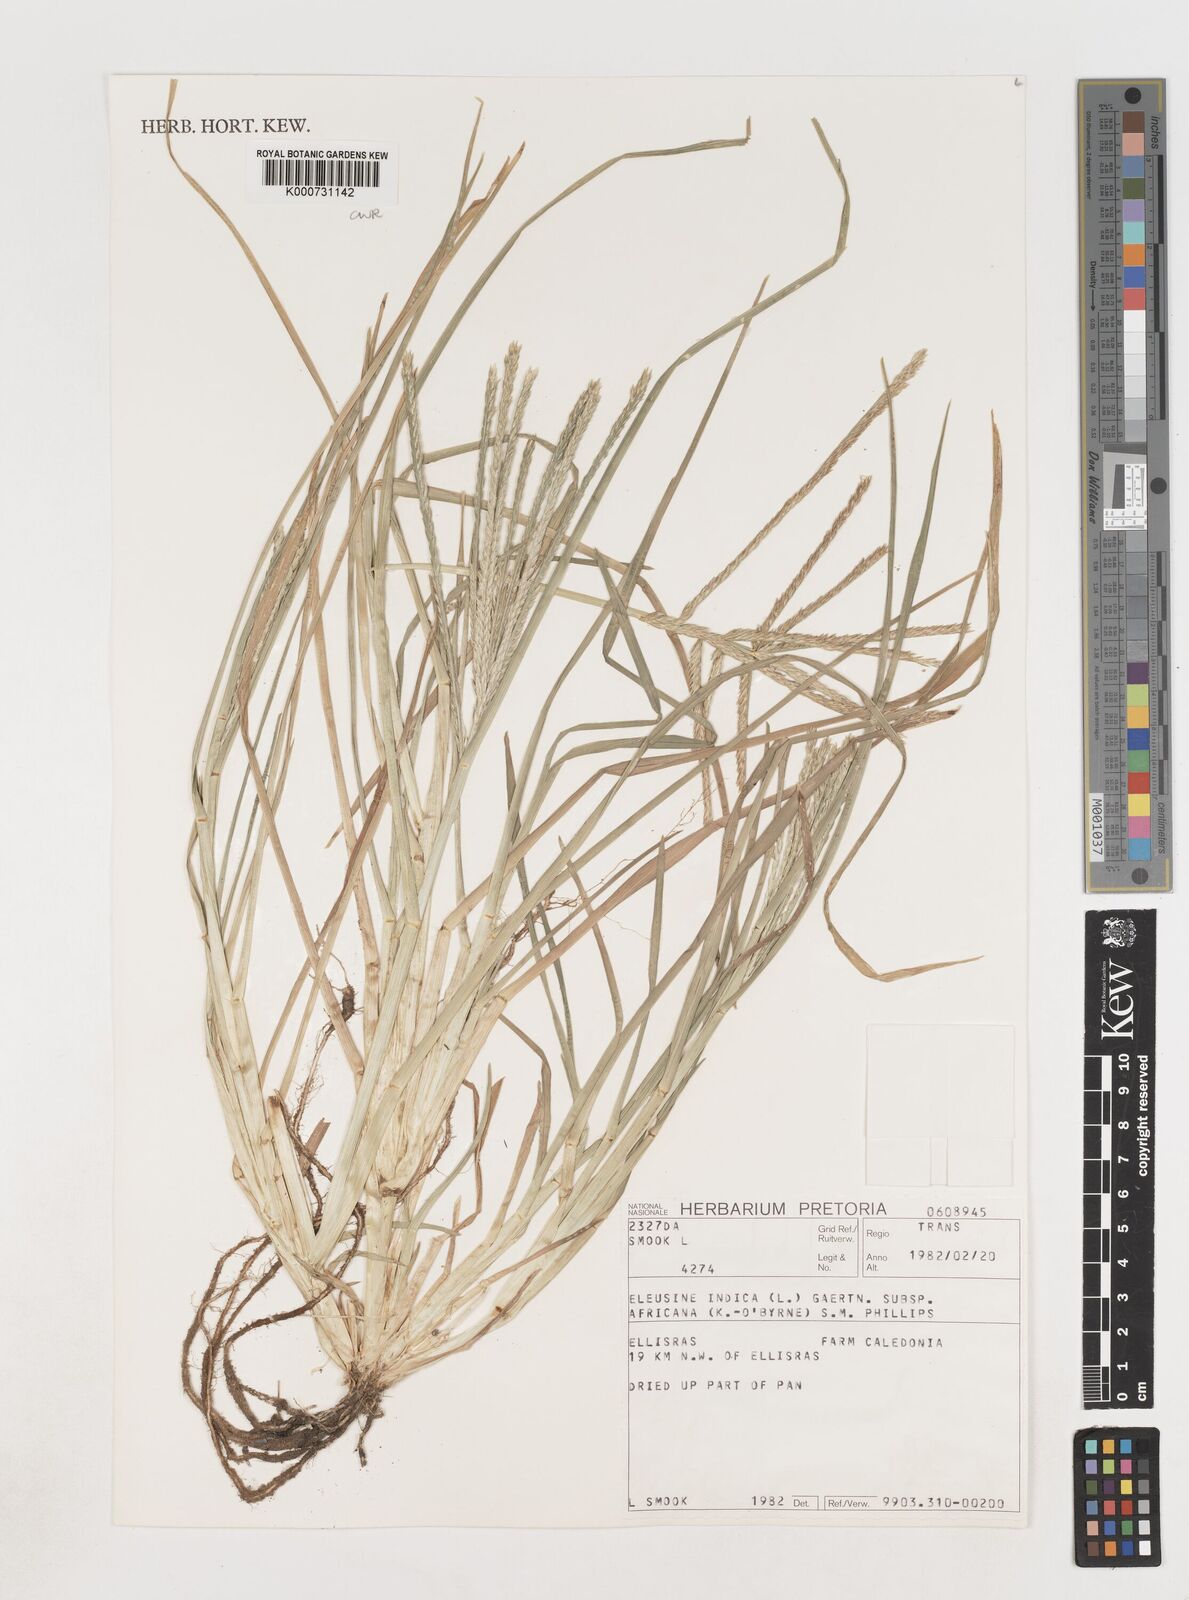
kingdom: Plantae
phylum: Tracheophyta
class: Liliopsida
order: Poales
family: Poaceae
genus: Eleusine
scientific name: Eleusine africana
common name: Wild african finger millet
